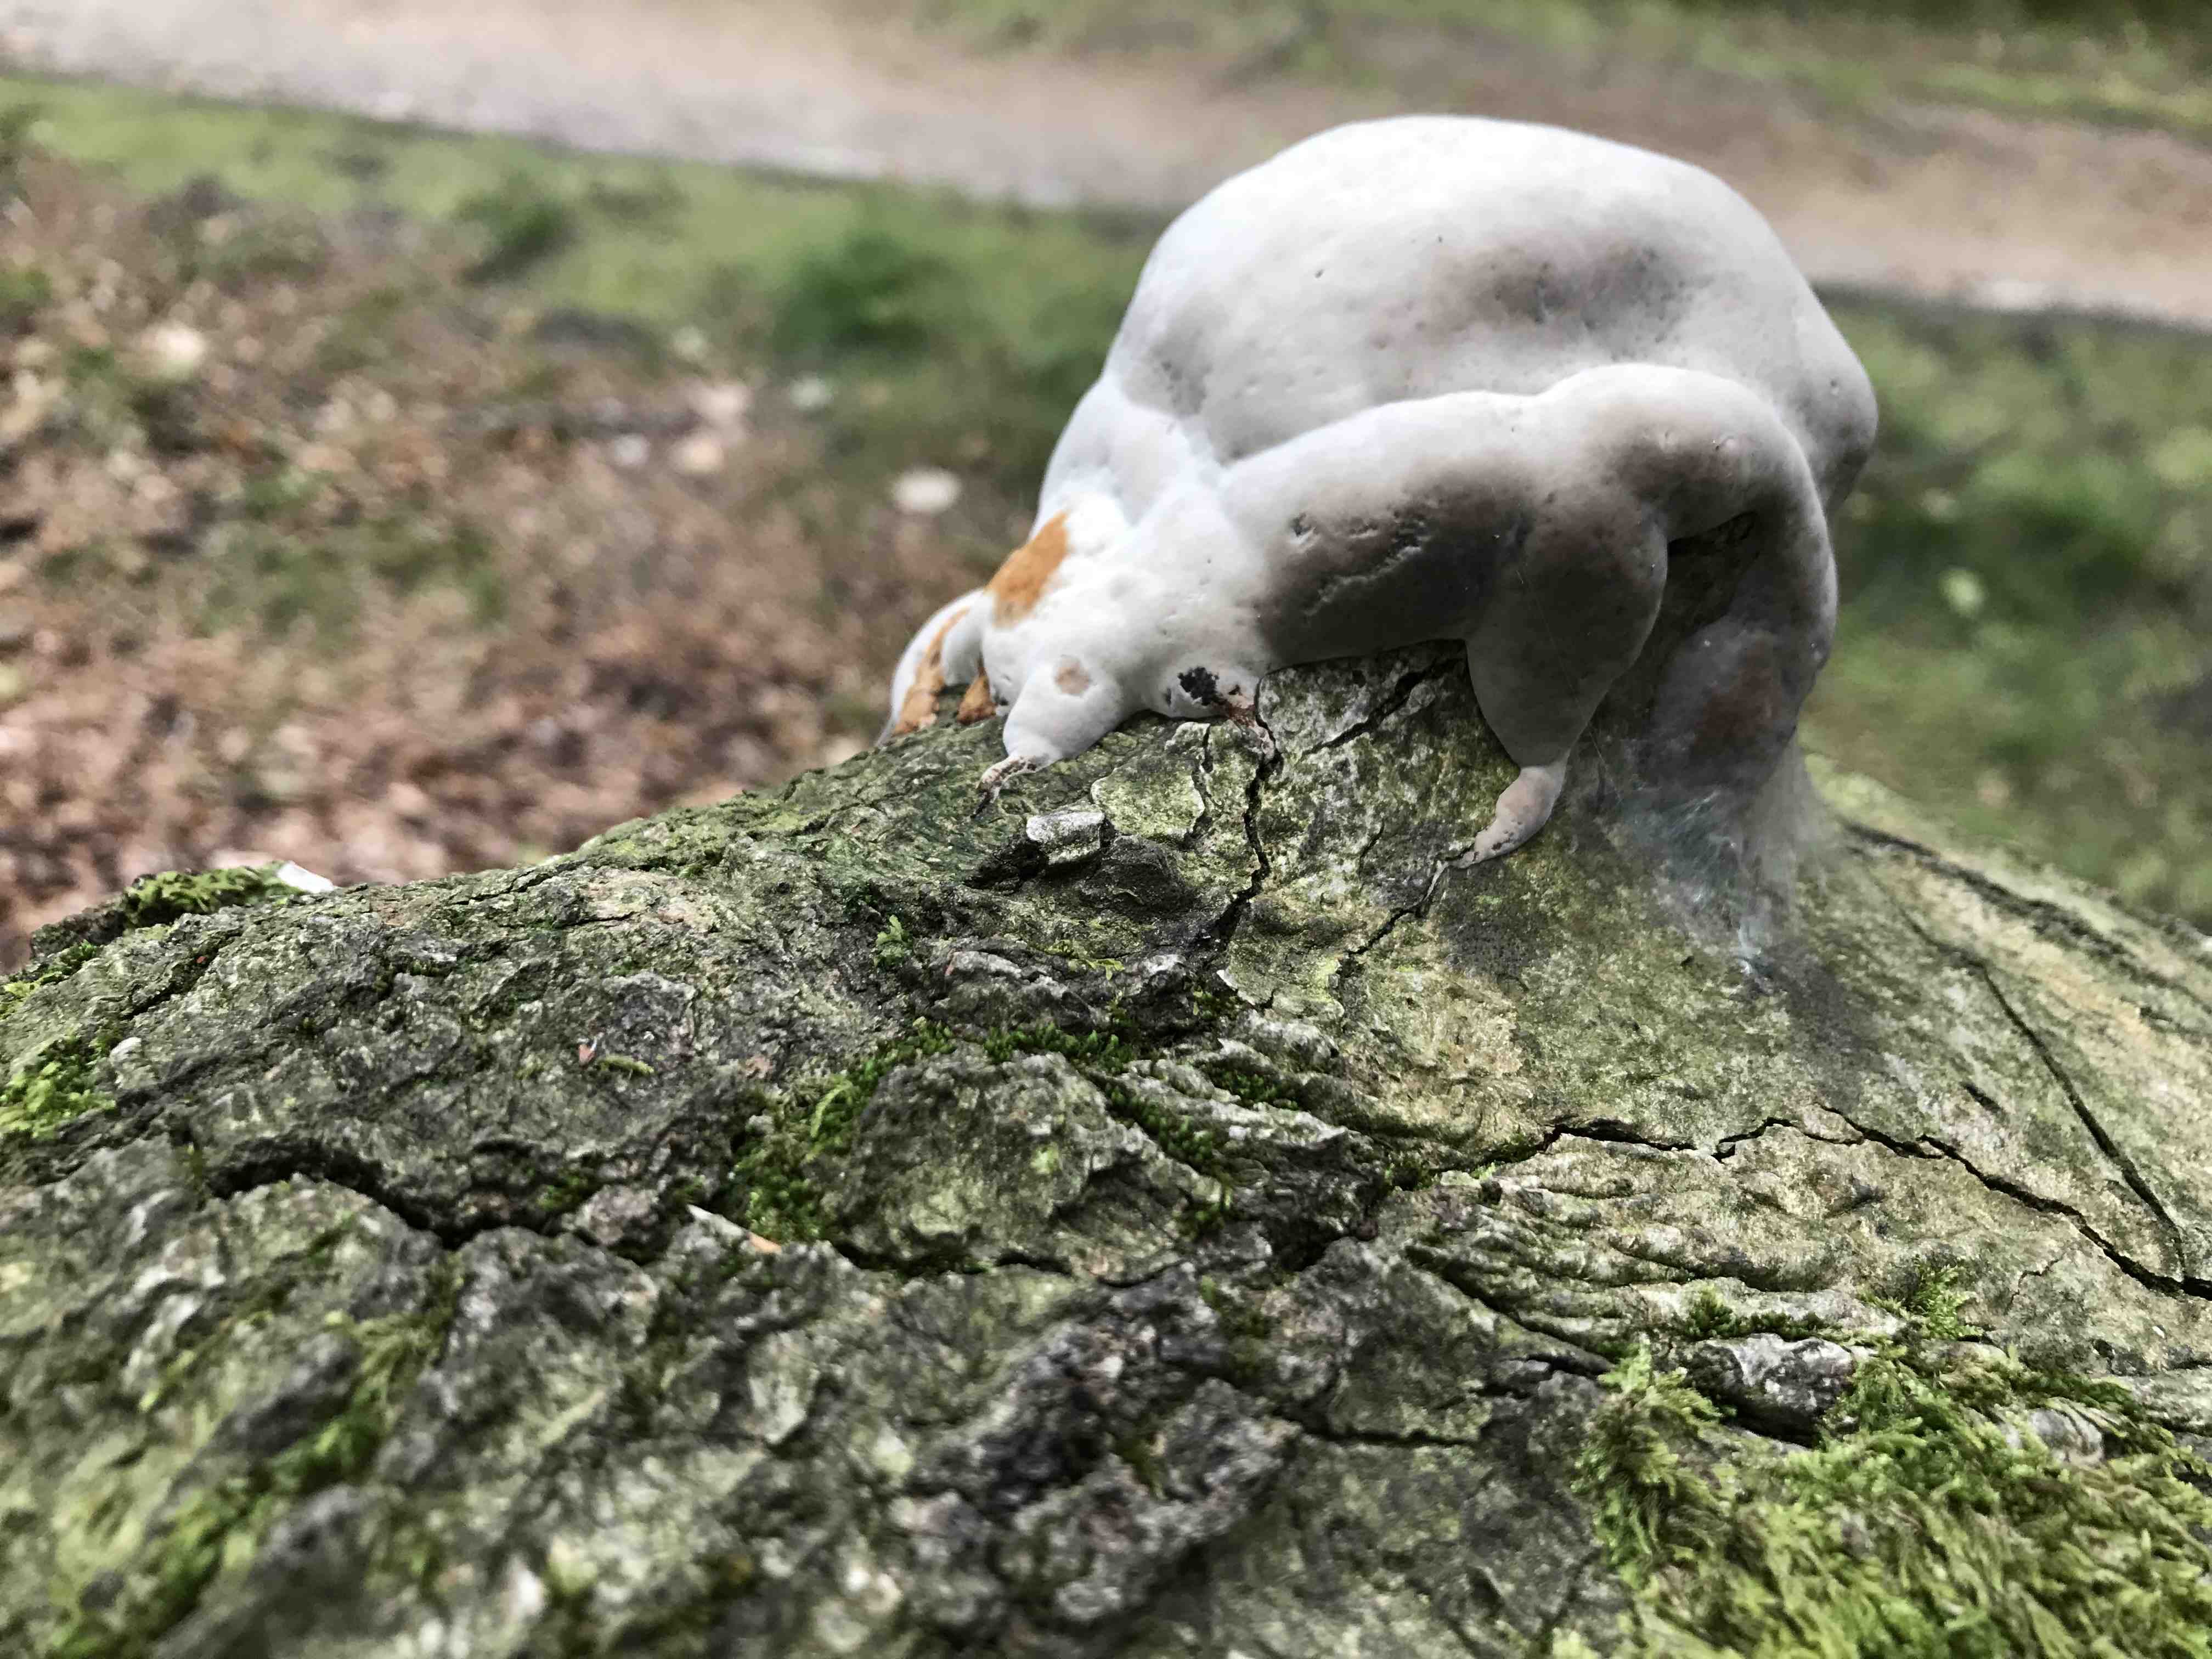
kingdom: Fungi
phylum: Basidiomycota
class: Agaricomycetes
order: Polyporales
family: Polyporaceae
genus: Fomes
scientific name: Fomes fomentarius
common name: tøndersvamp
